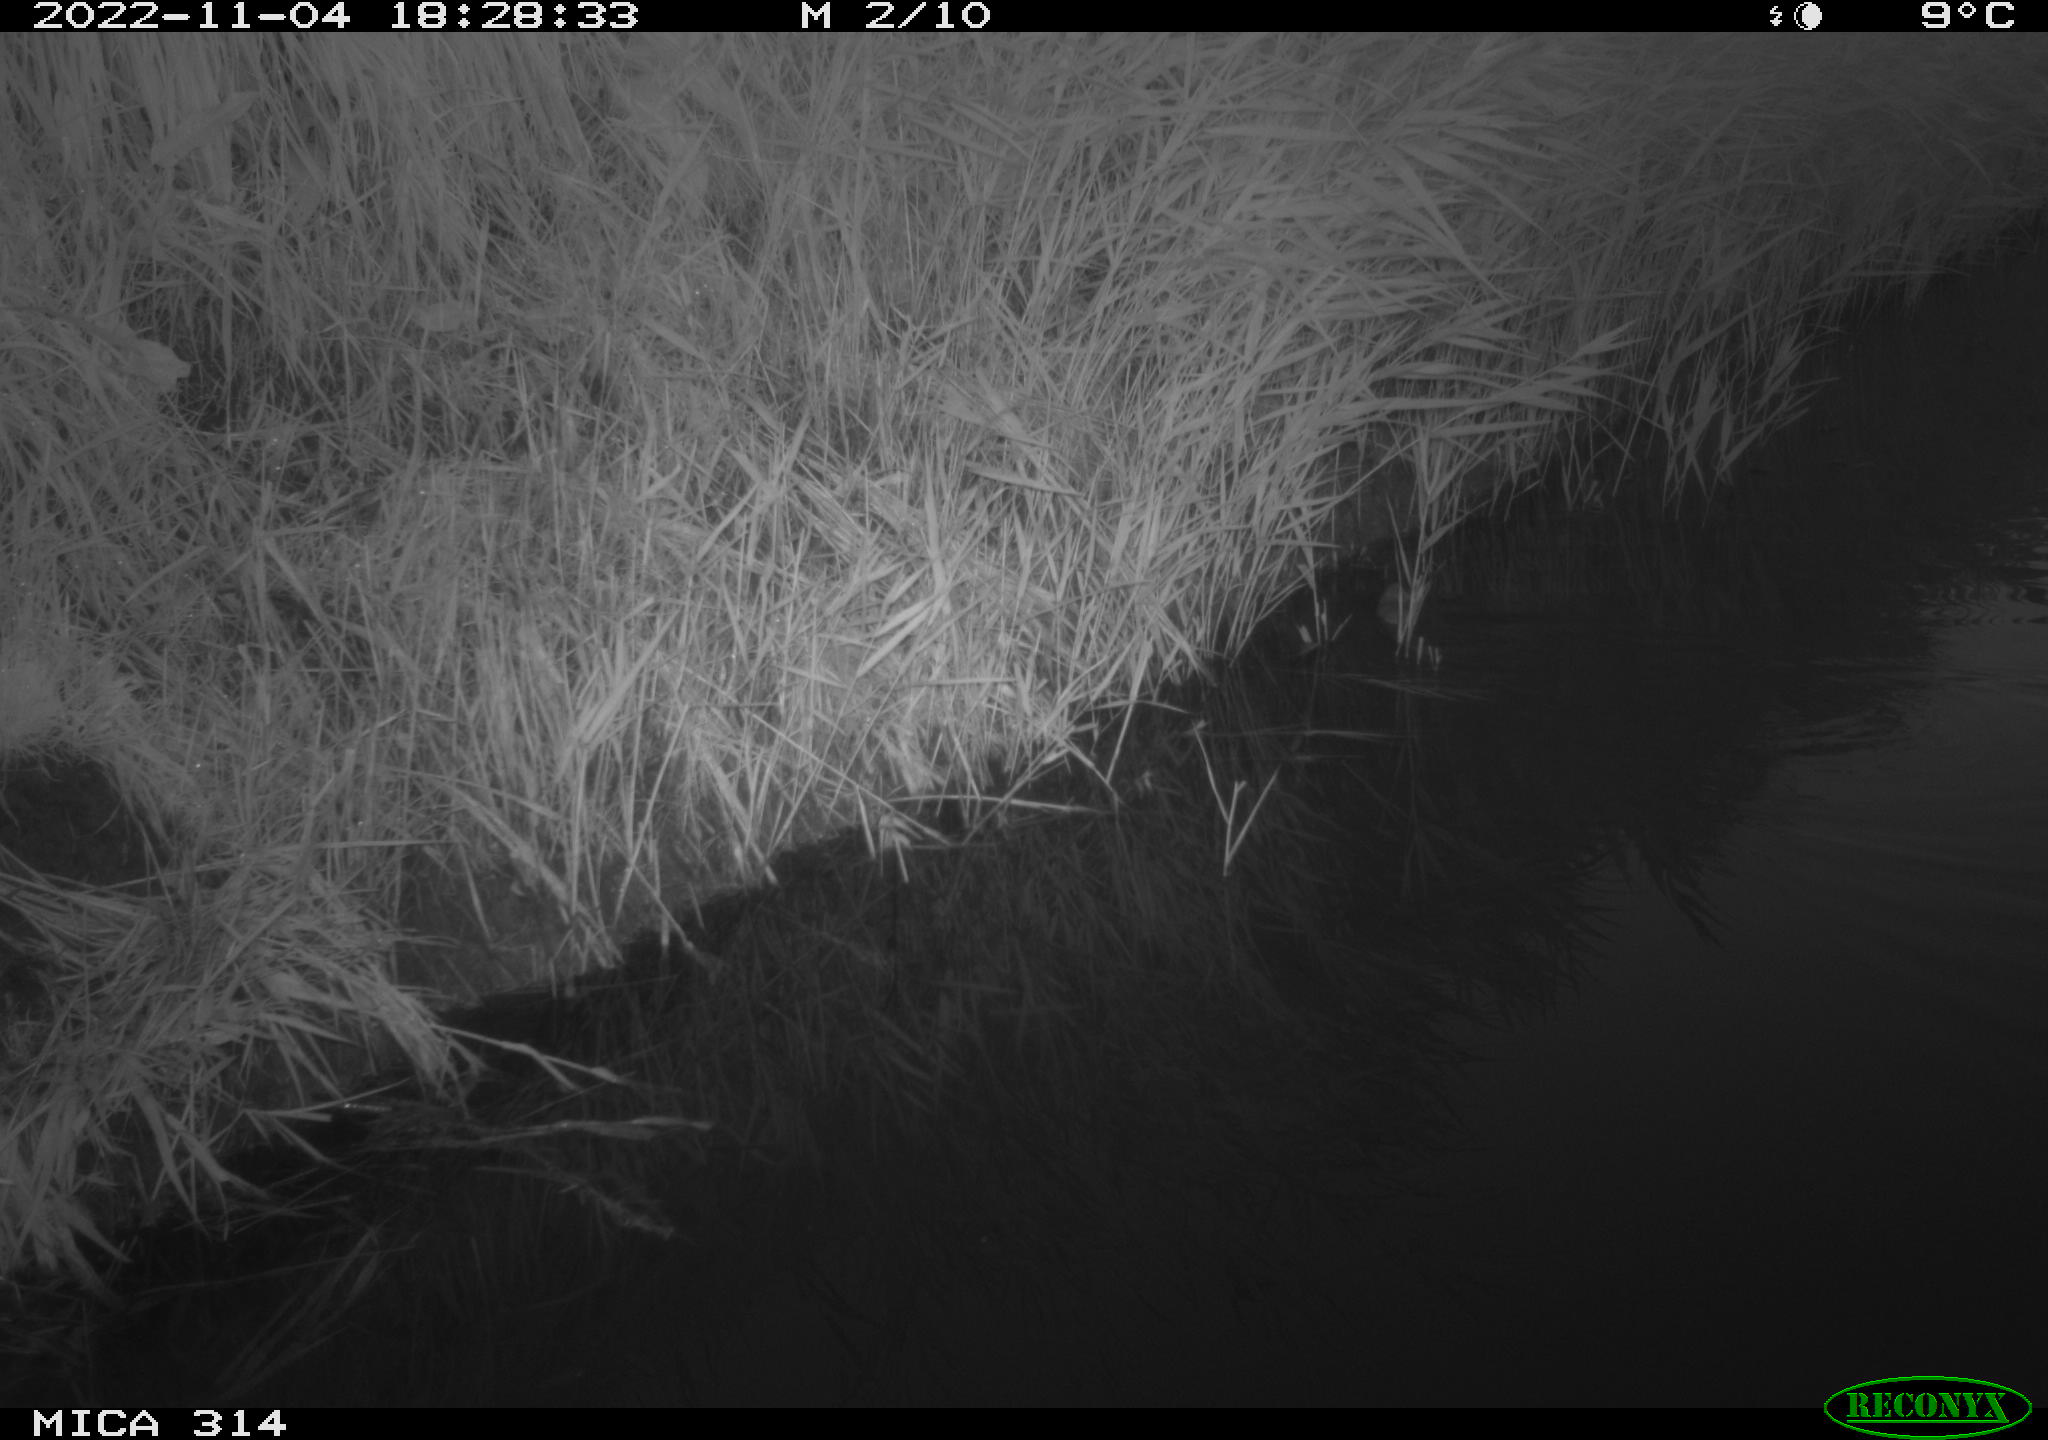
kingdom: Animalia
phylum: Chordata
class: Mammalia
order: Rodentia
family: Muridae
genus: Rattus
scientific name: Rattus norvegicus
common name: Brown rat
